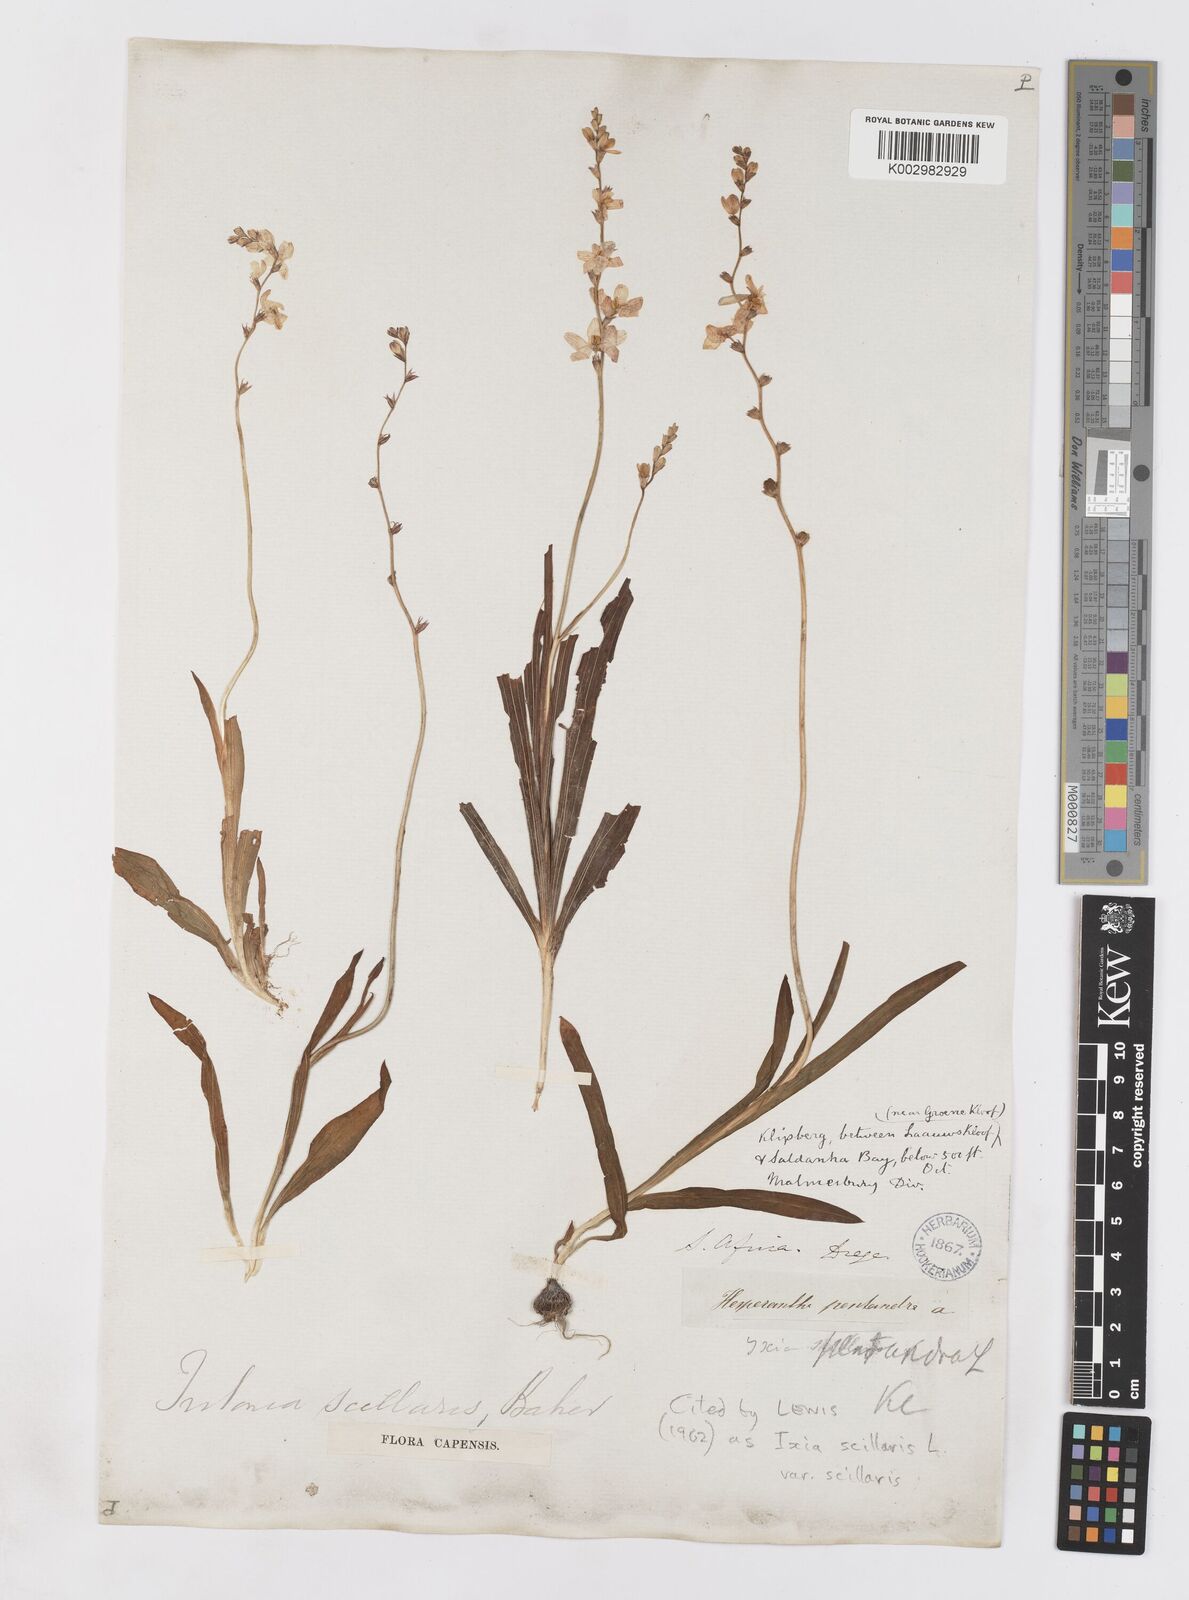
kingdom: Plantae
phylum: Tracheophyta
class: Liliopsida
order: Asparagales
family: Iridaceae
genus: Ixia
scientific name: Ixia scillaris
